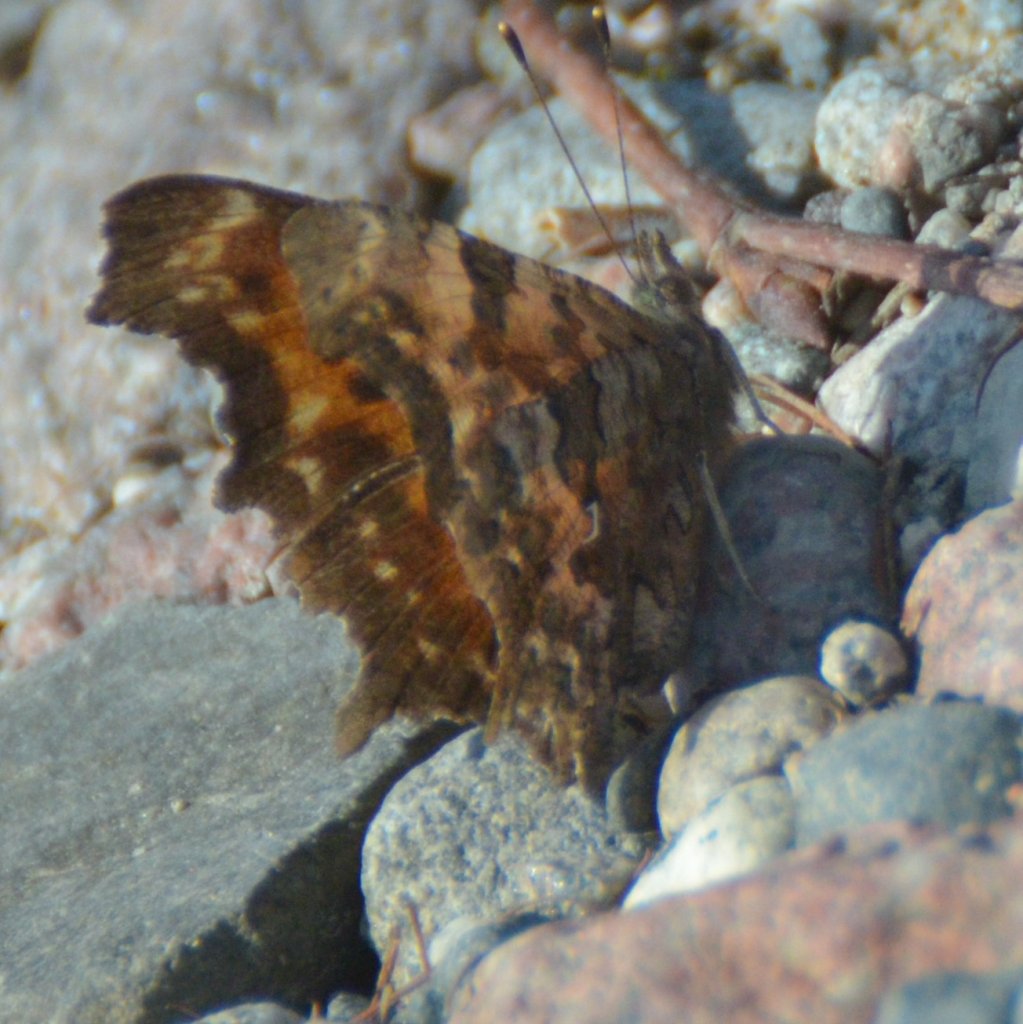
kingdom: Animalia
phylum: Arthropoda
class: Insecta
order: Lepidoptera
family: Nymphalidae
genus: Polygonia
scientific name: Polygonia faunus
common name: Green Comma
